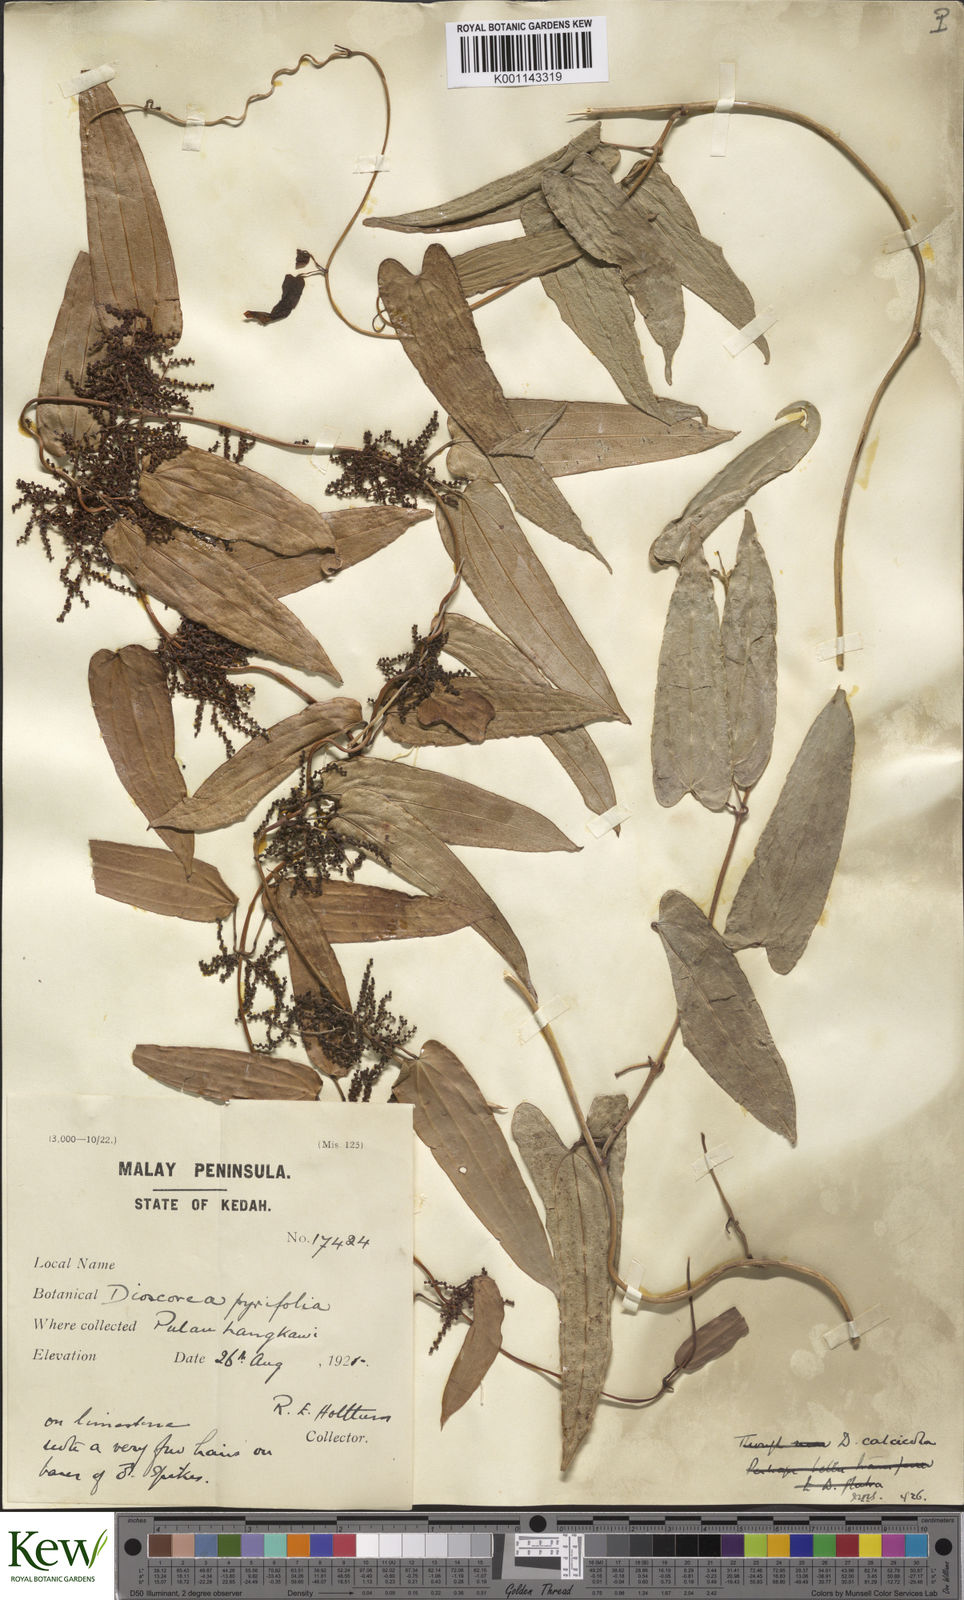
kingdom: Plantae
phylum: Tracheophyta
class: Liliopsida
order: Dioscoreales
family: Dioscoreaceae
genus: Dioscorea
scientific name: Dioscorea calcicola
